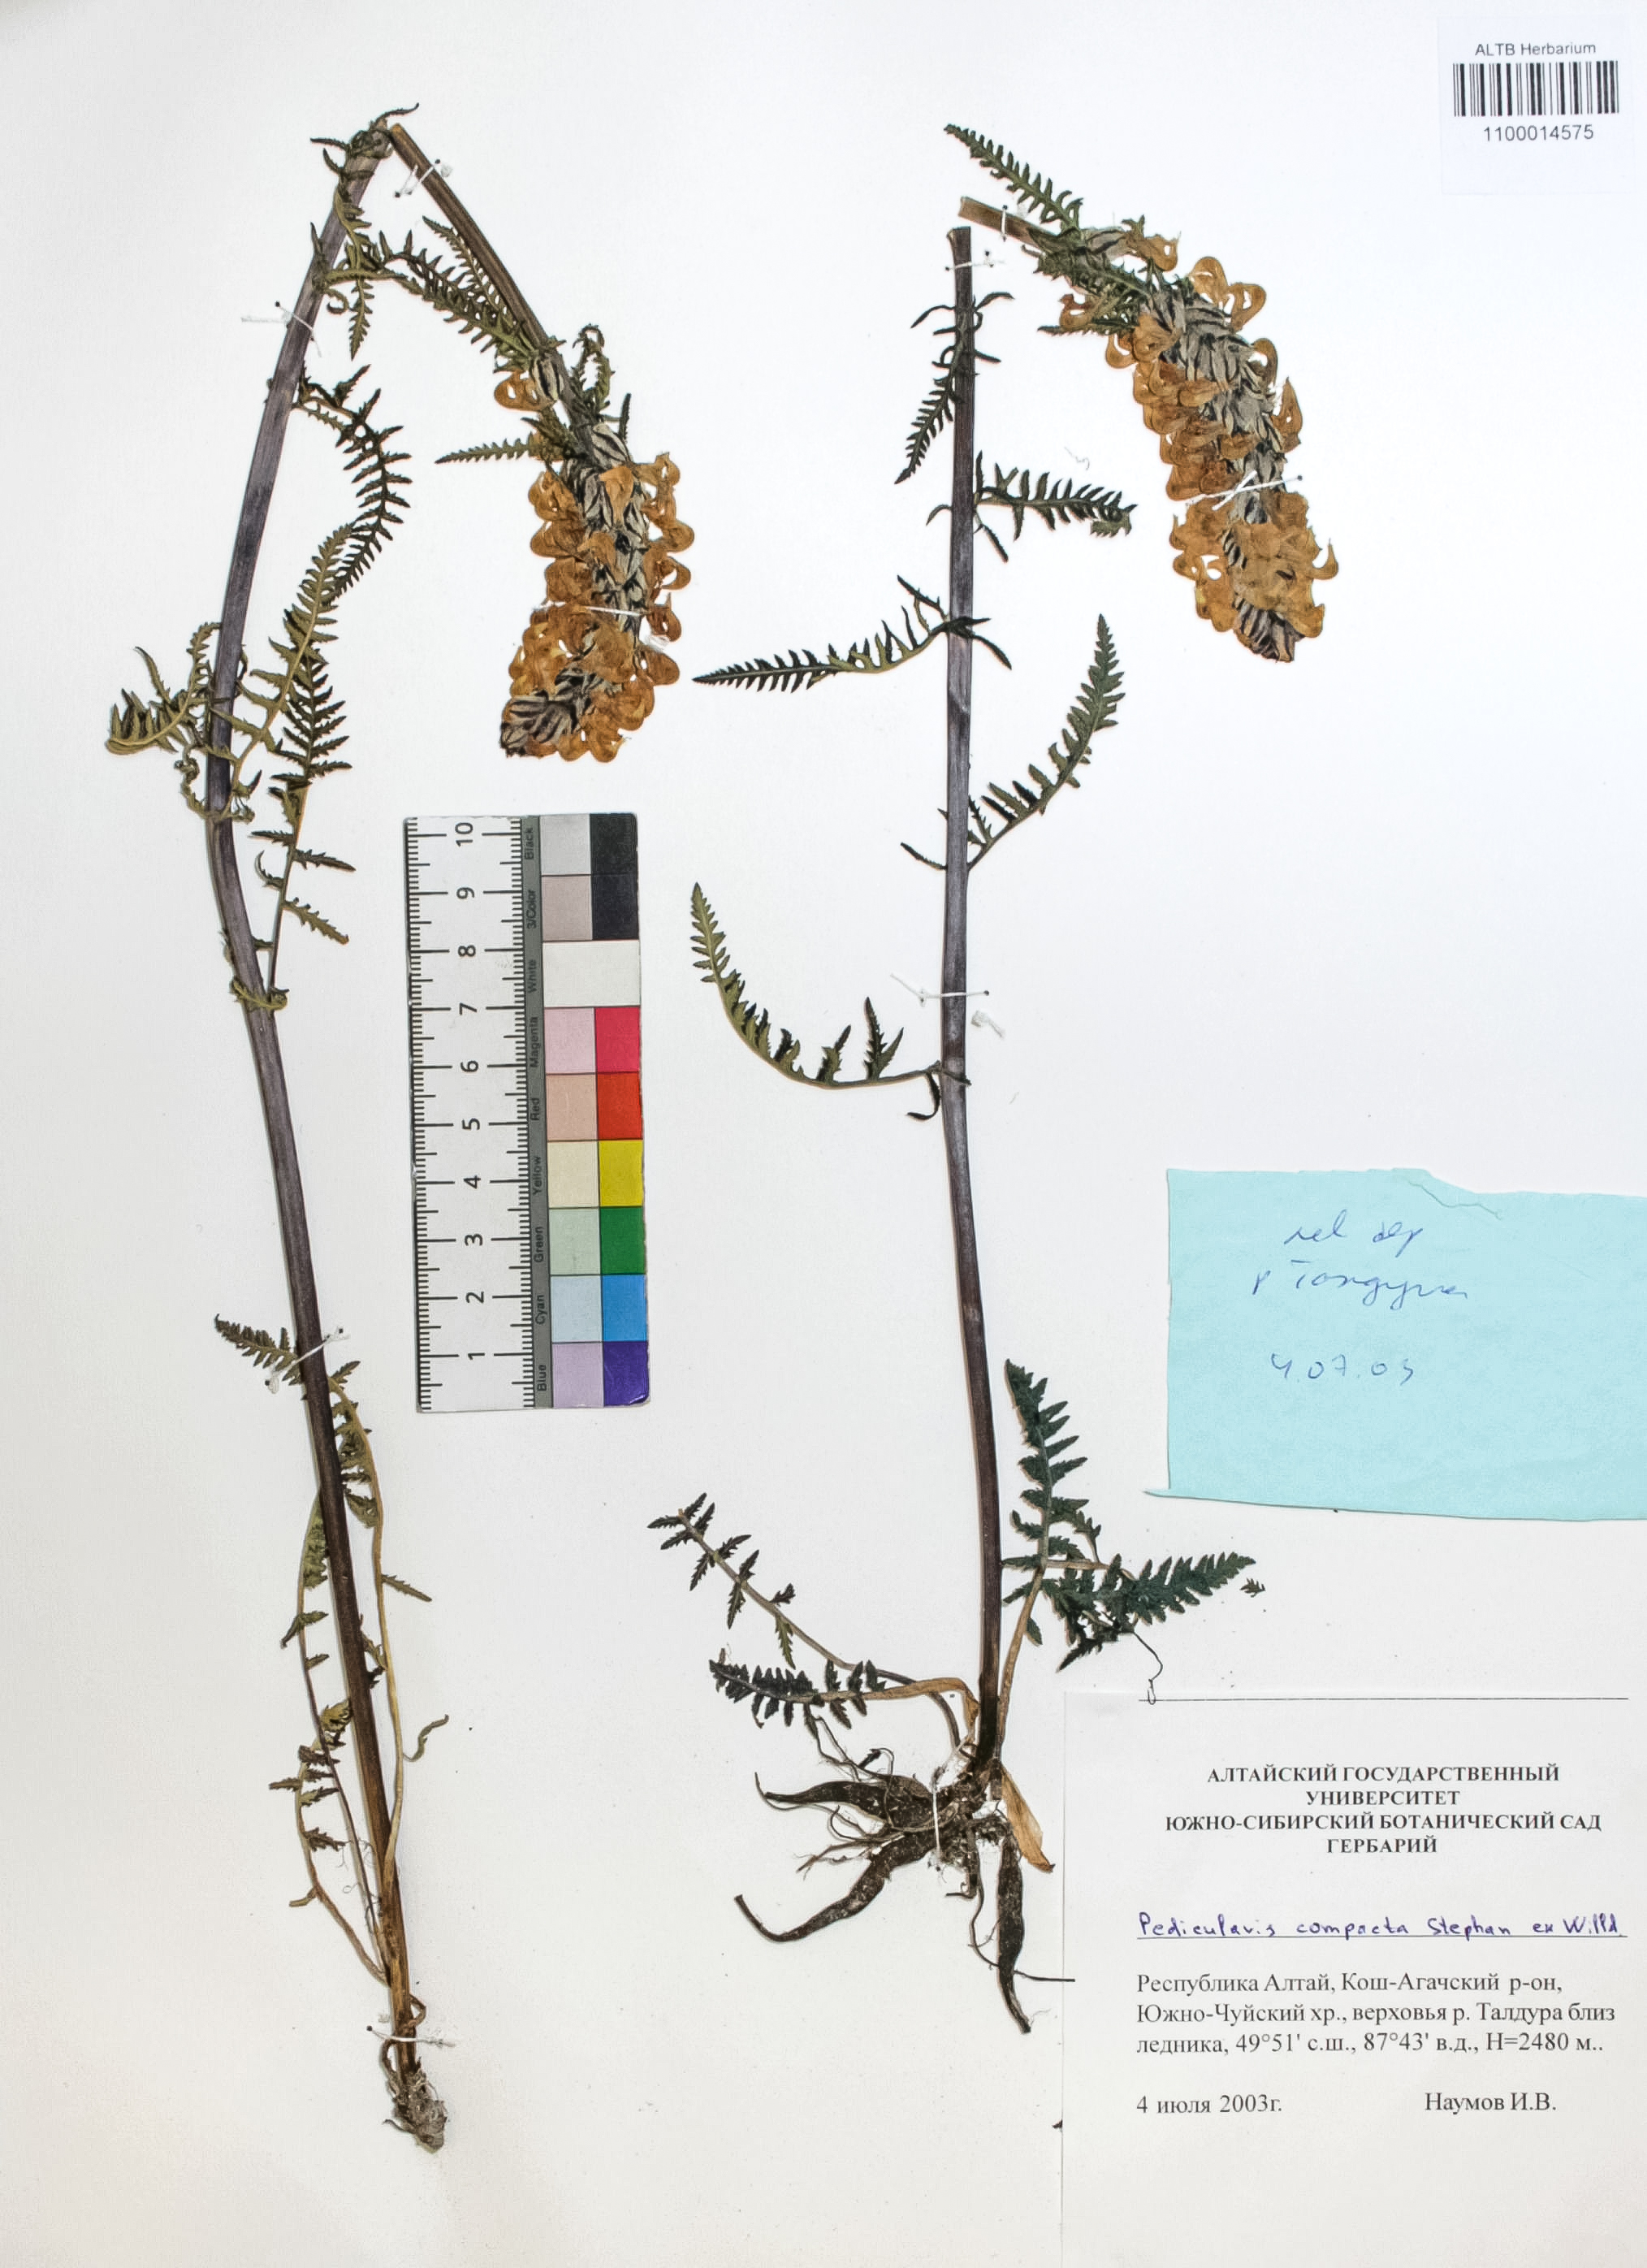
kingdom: Plantae
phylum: Tracheophyta
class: Magnoliopsida
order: Lamiales
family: Orobanchaceae
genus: Pedicularis
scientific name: Pedicularis compacta
